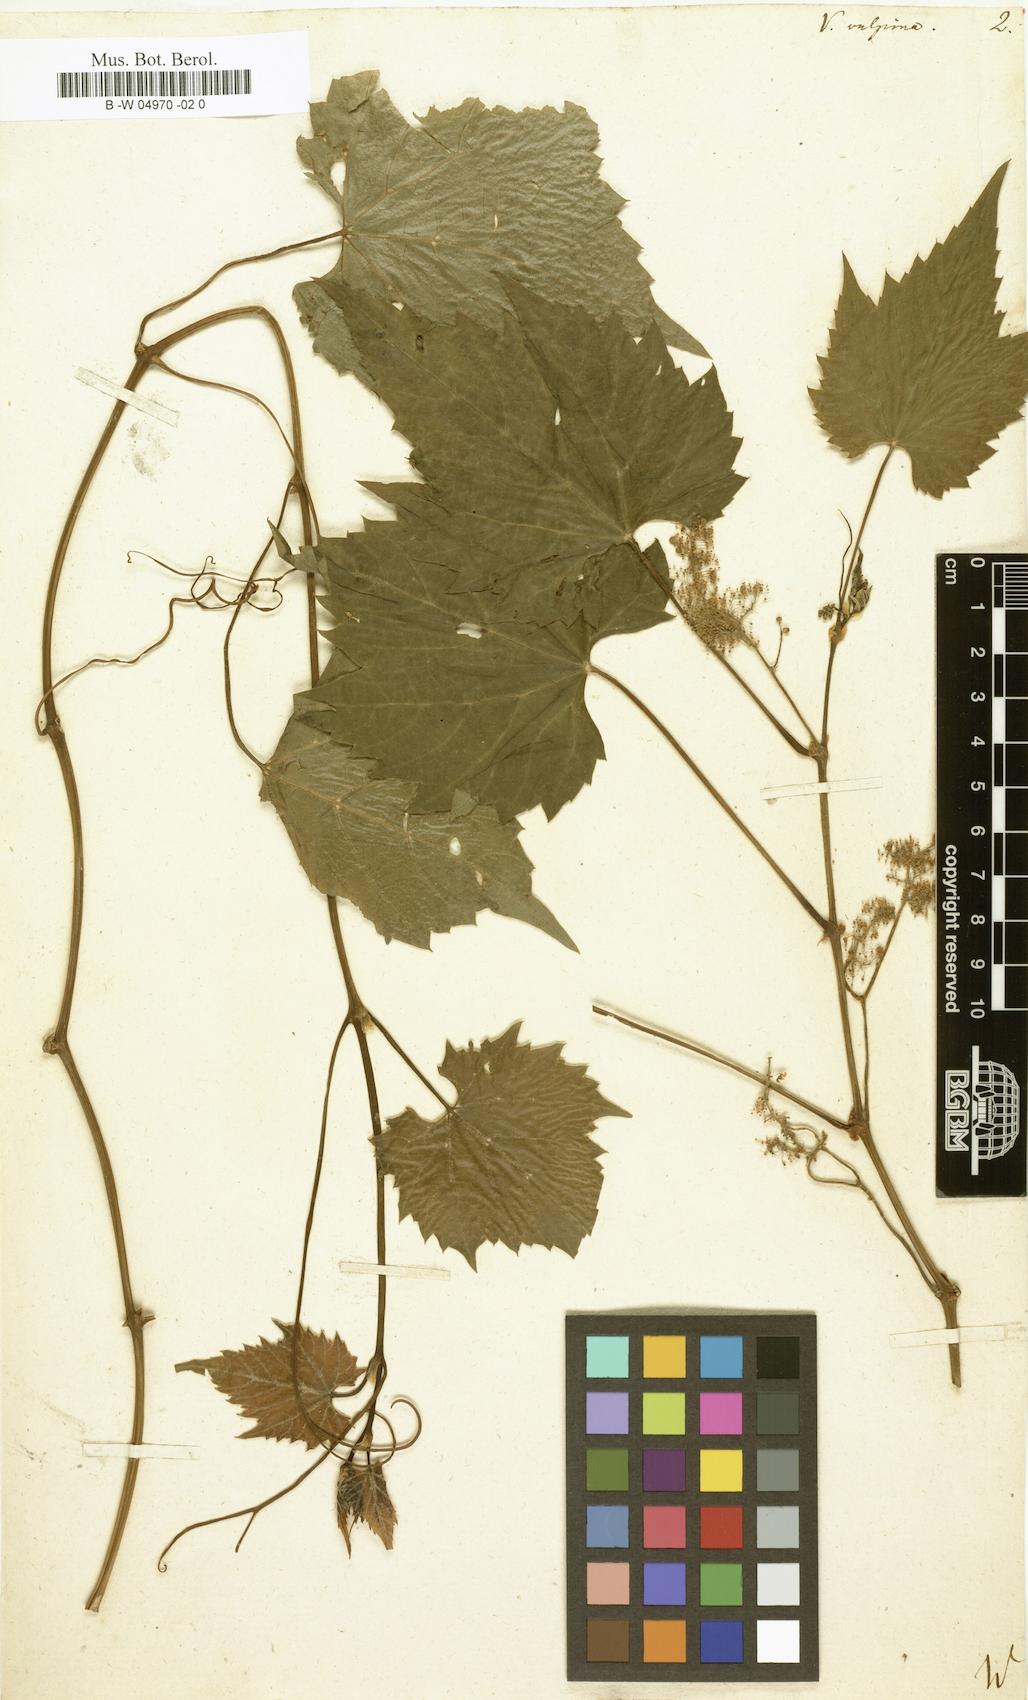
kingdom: Plantae
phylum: Tracheophyta
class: Magnoliopsida
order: Vitales
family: Vitaceae
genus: Vitis
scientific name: Vitis vulpina
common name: Frost grape
